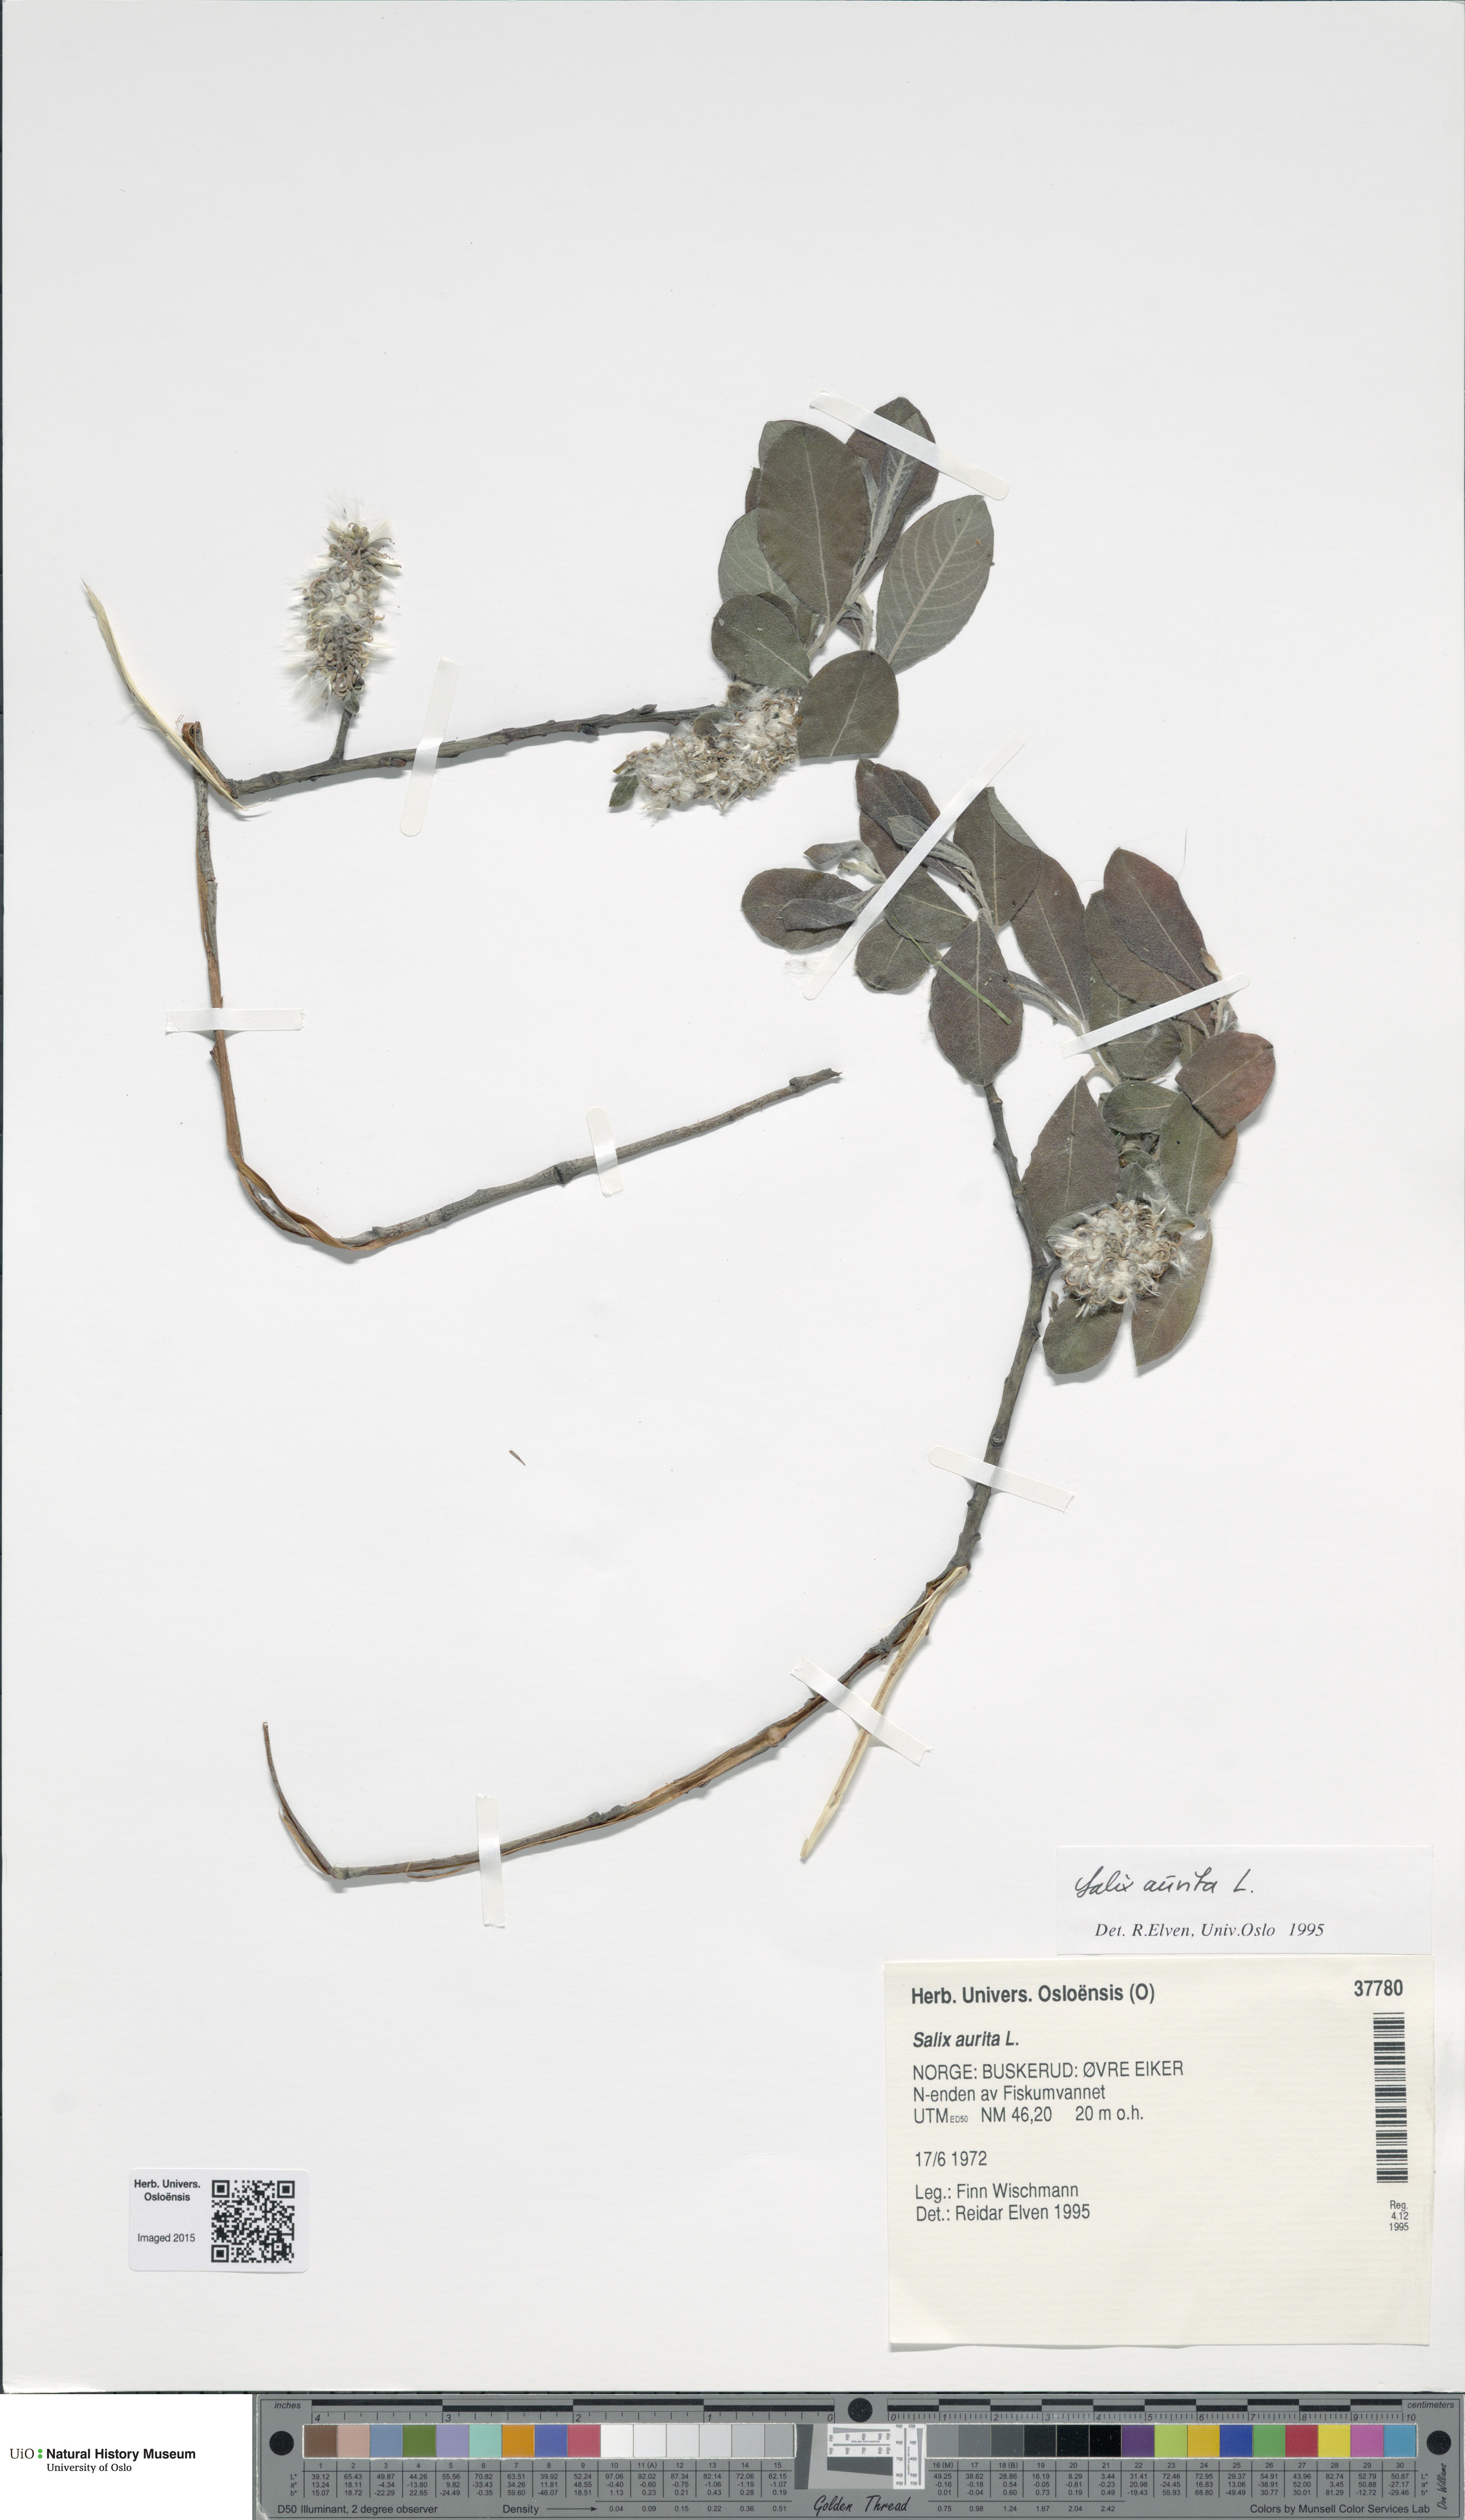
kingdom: Plantae
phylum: Tracheophyta
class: Magnoliopsida
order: Malpighiales
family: Salicaceae
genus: Salix
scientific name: Salix aurita
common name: Eared willow
